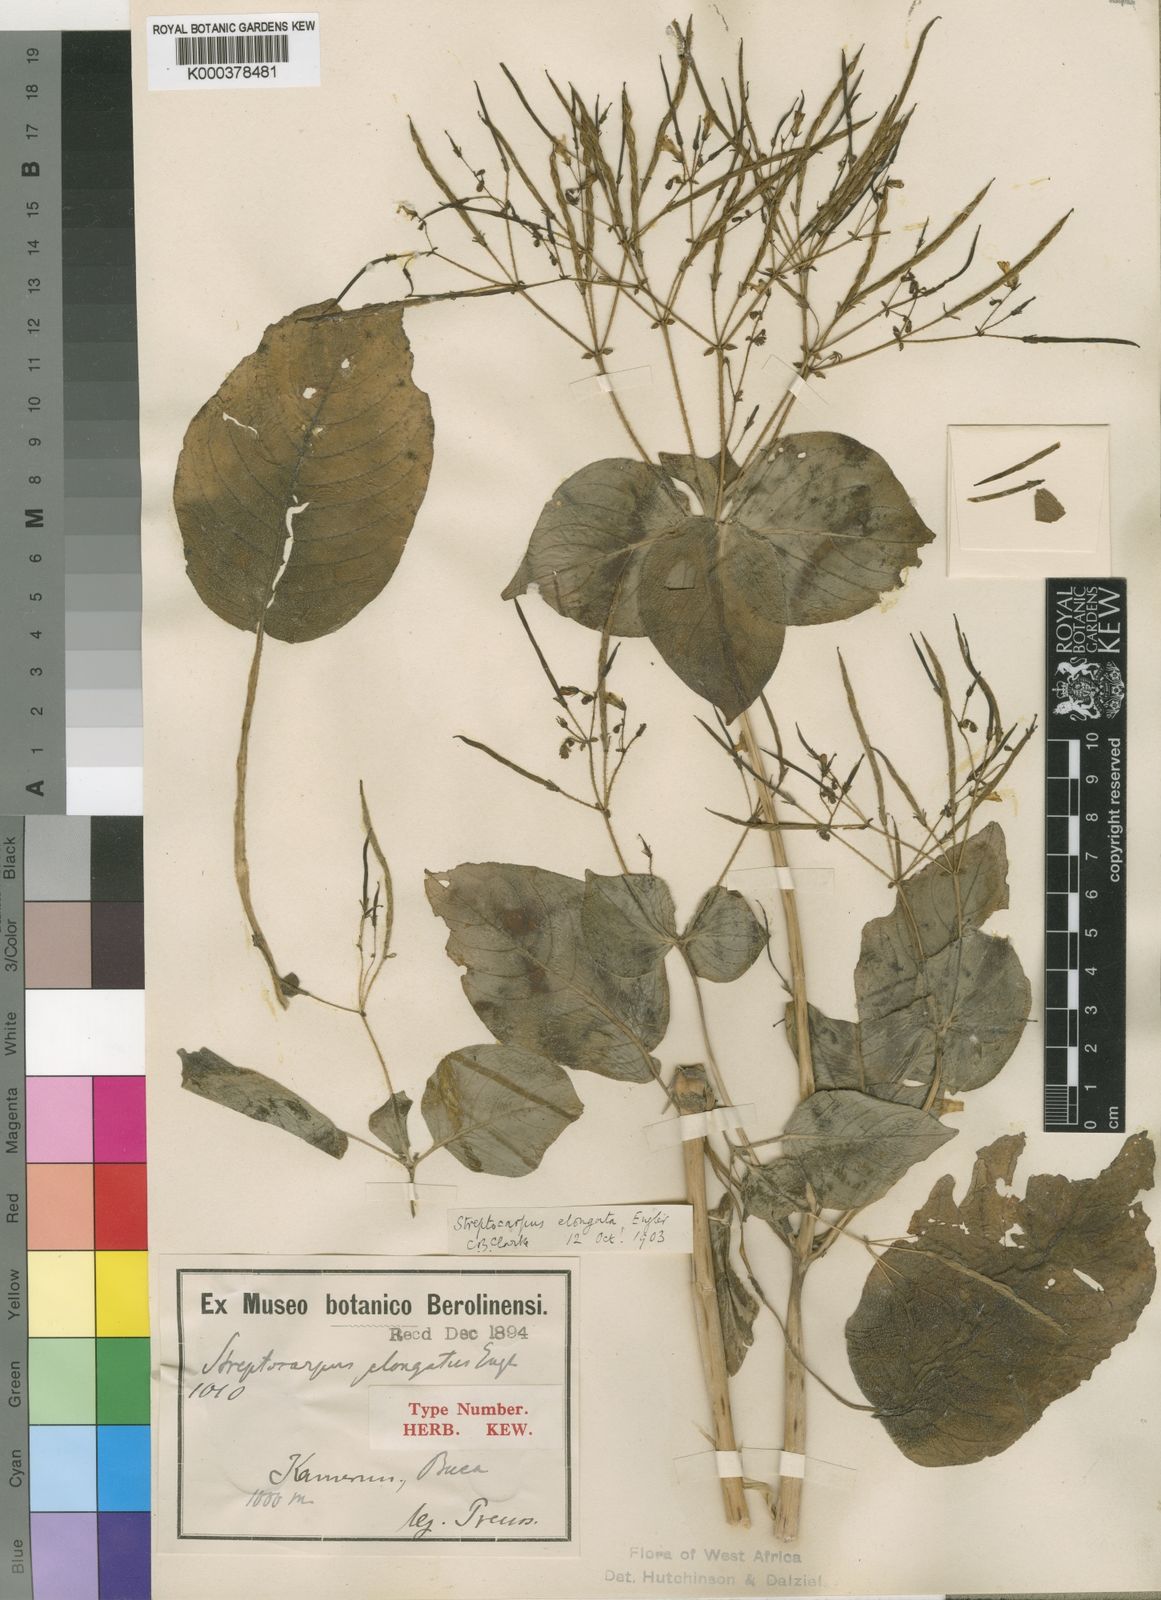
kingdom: Plantae
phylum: Tracheophyta
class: Magnoliopsida
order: Lamiales
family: Gesneriaceae
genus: Streptocarpus
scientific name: Streptocarpus elongatus
